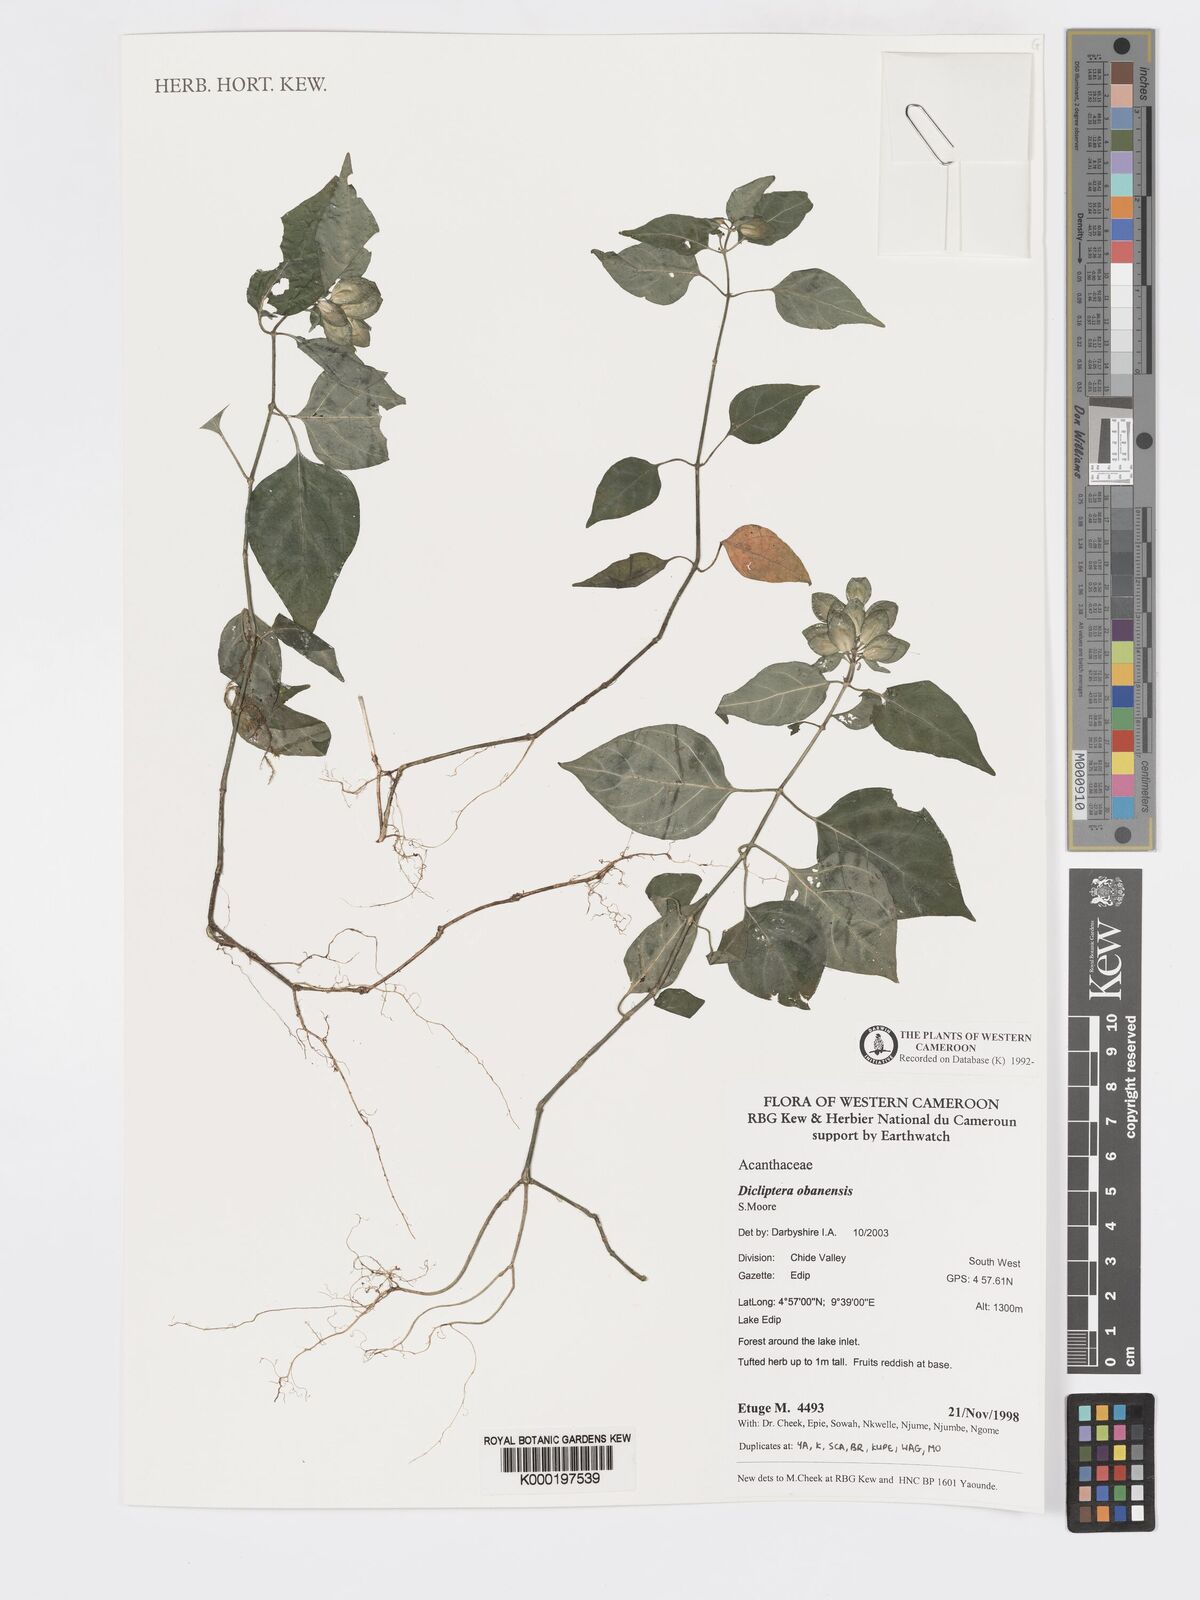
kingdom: Plantae
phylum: Tracheophyta
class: Magnoliopsida
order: Lamiales
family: Acanthaceae
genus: Dicliptera
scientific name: Dicliptera elliotii
